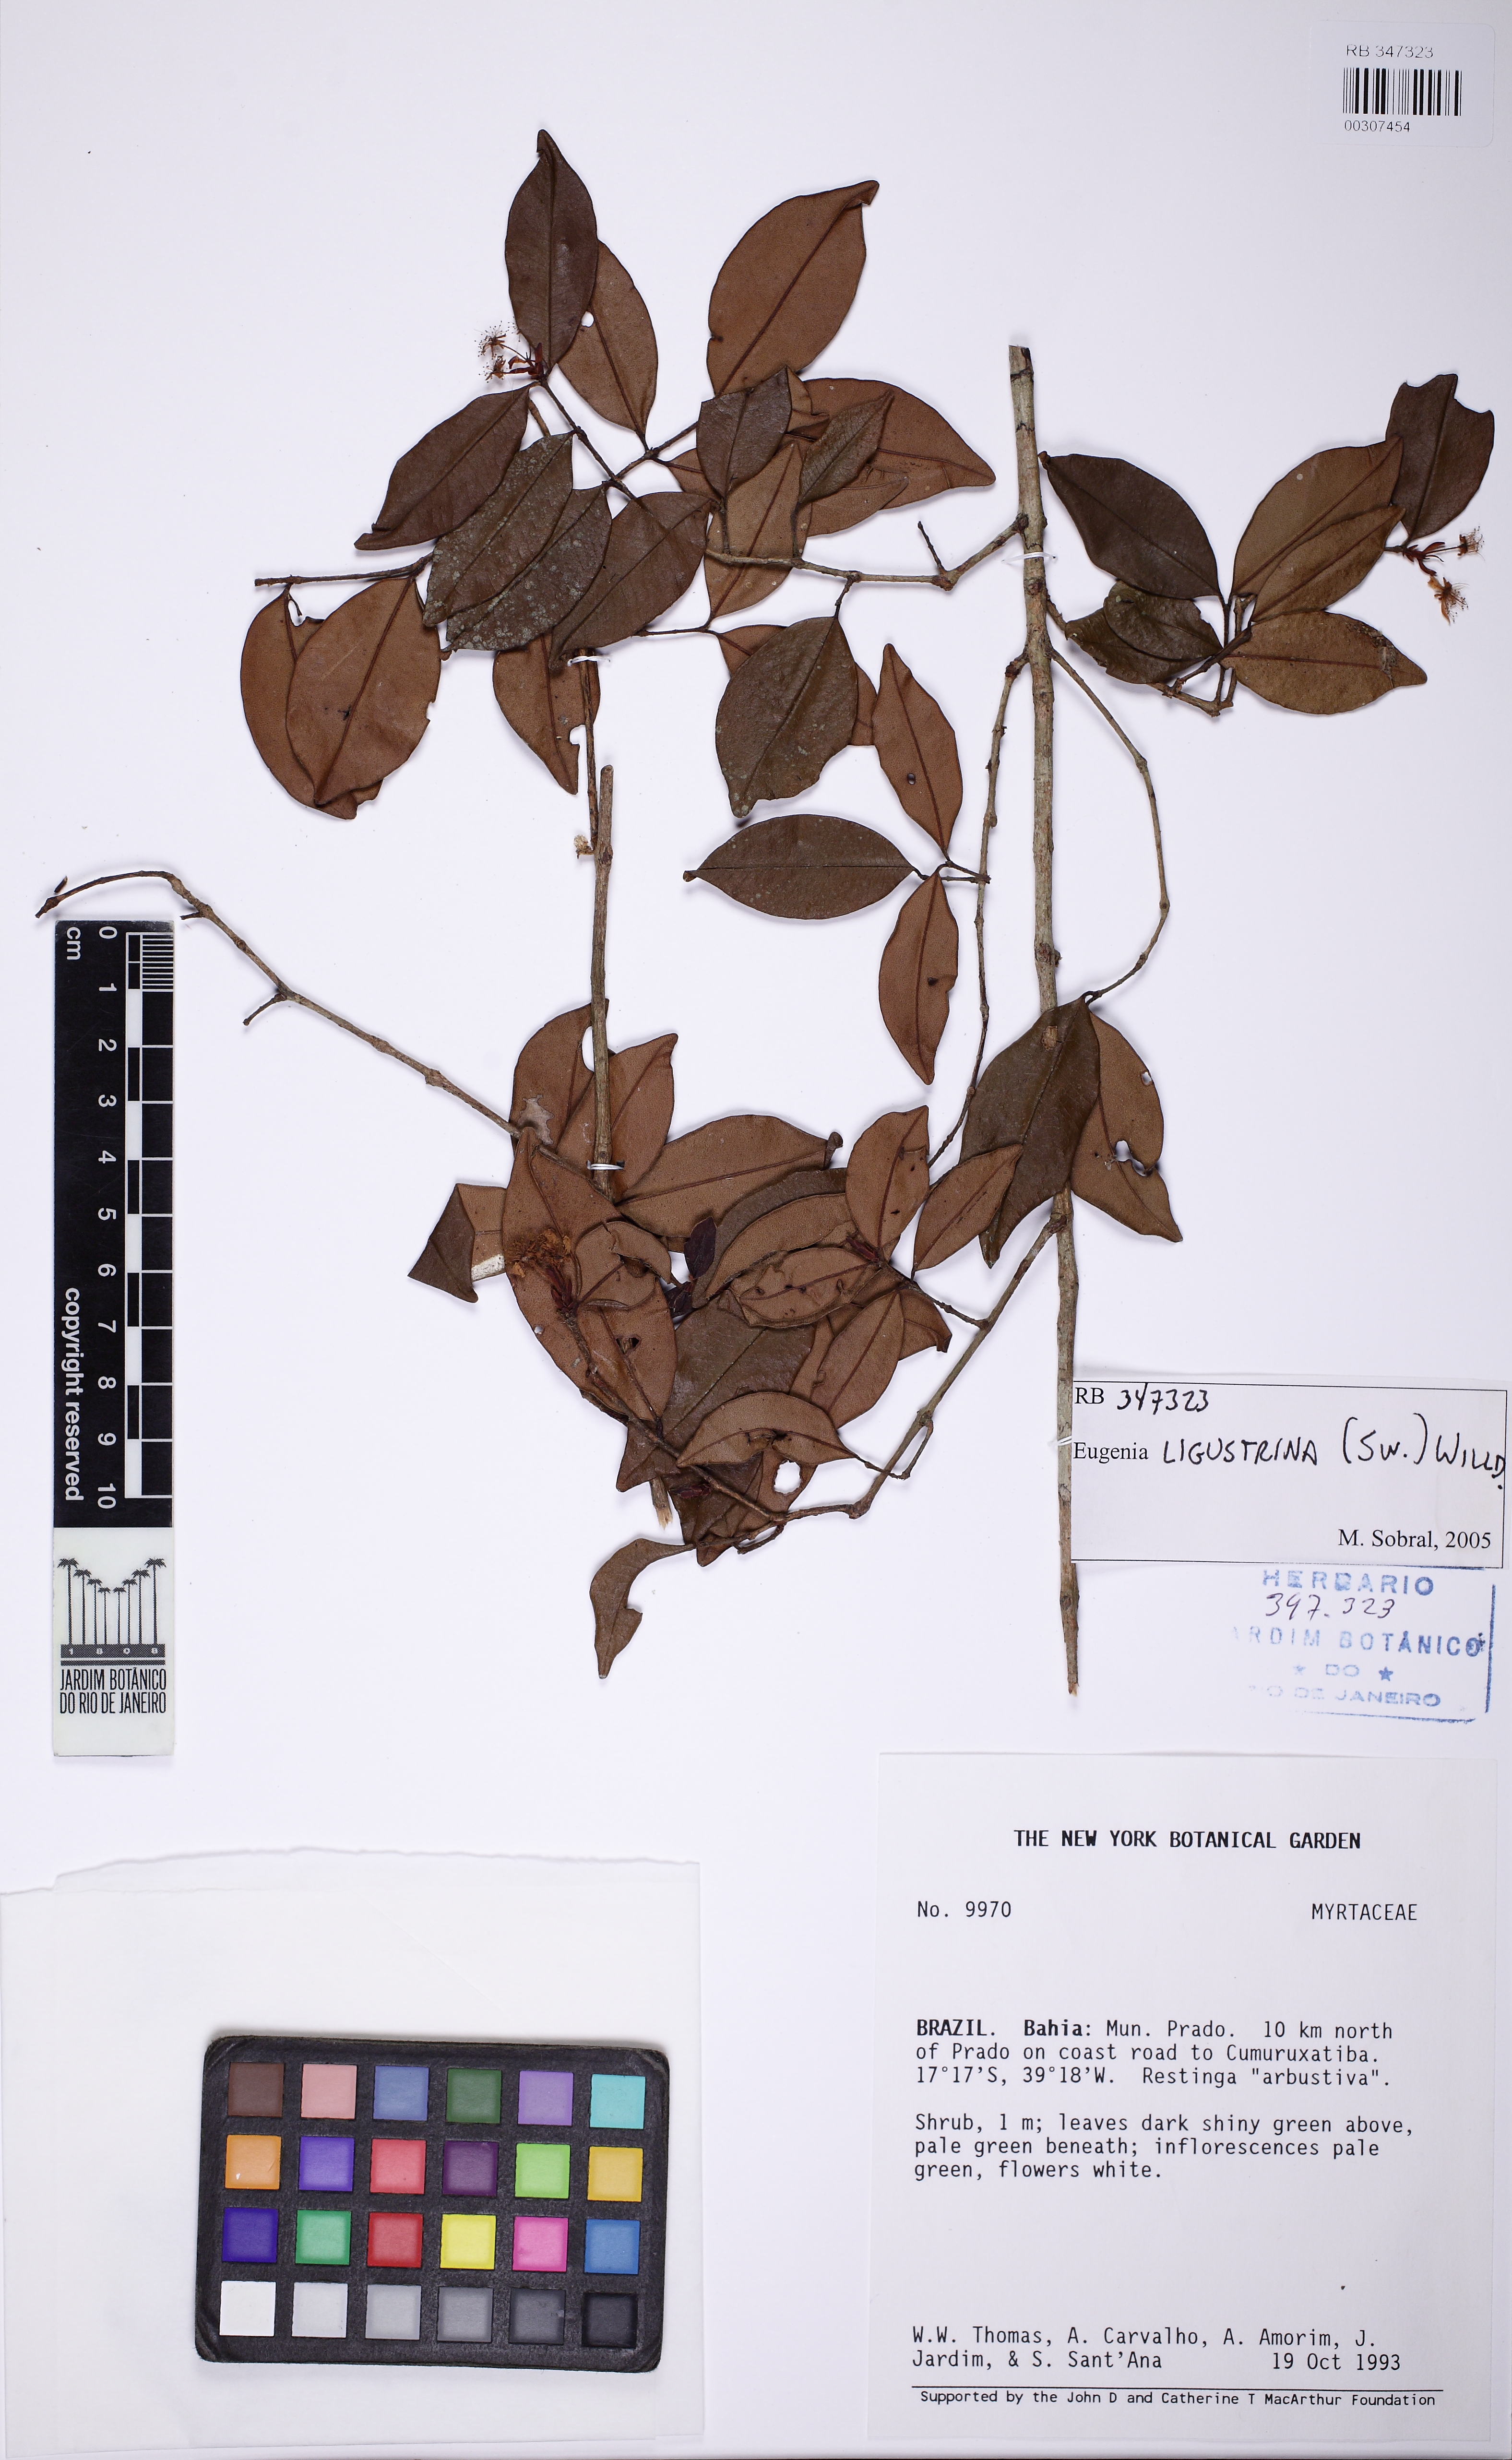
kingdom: Plantae
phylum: Tracheophyta
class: Magnoliopsida
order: Myrtales
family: Myrtaceae
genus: Eugenia
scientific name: Eugenia ligustrina
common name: Privet stopper
